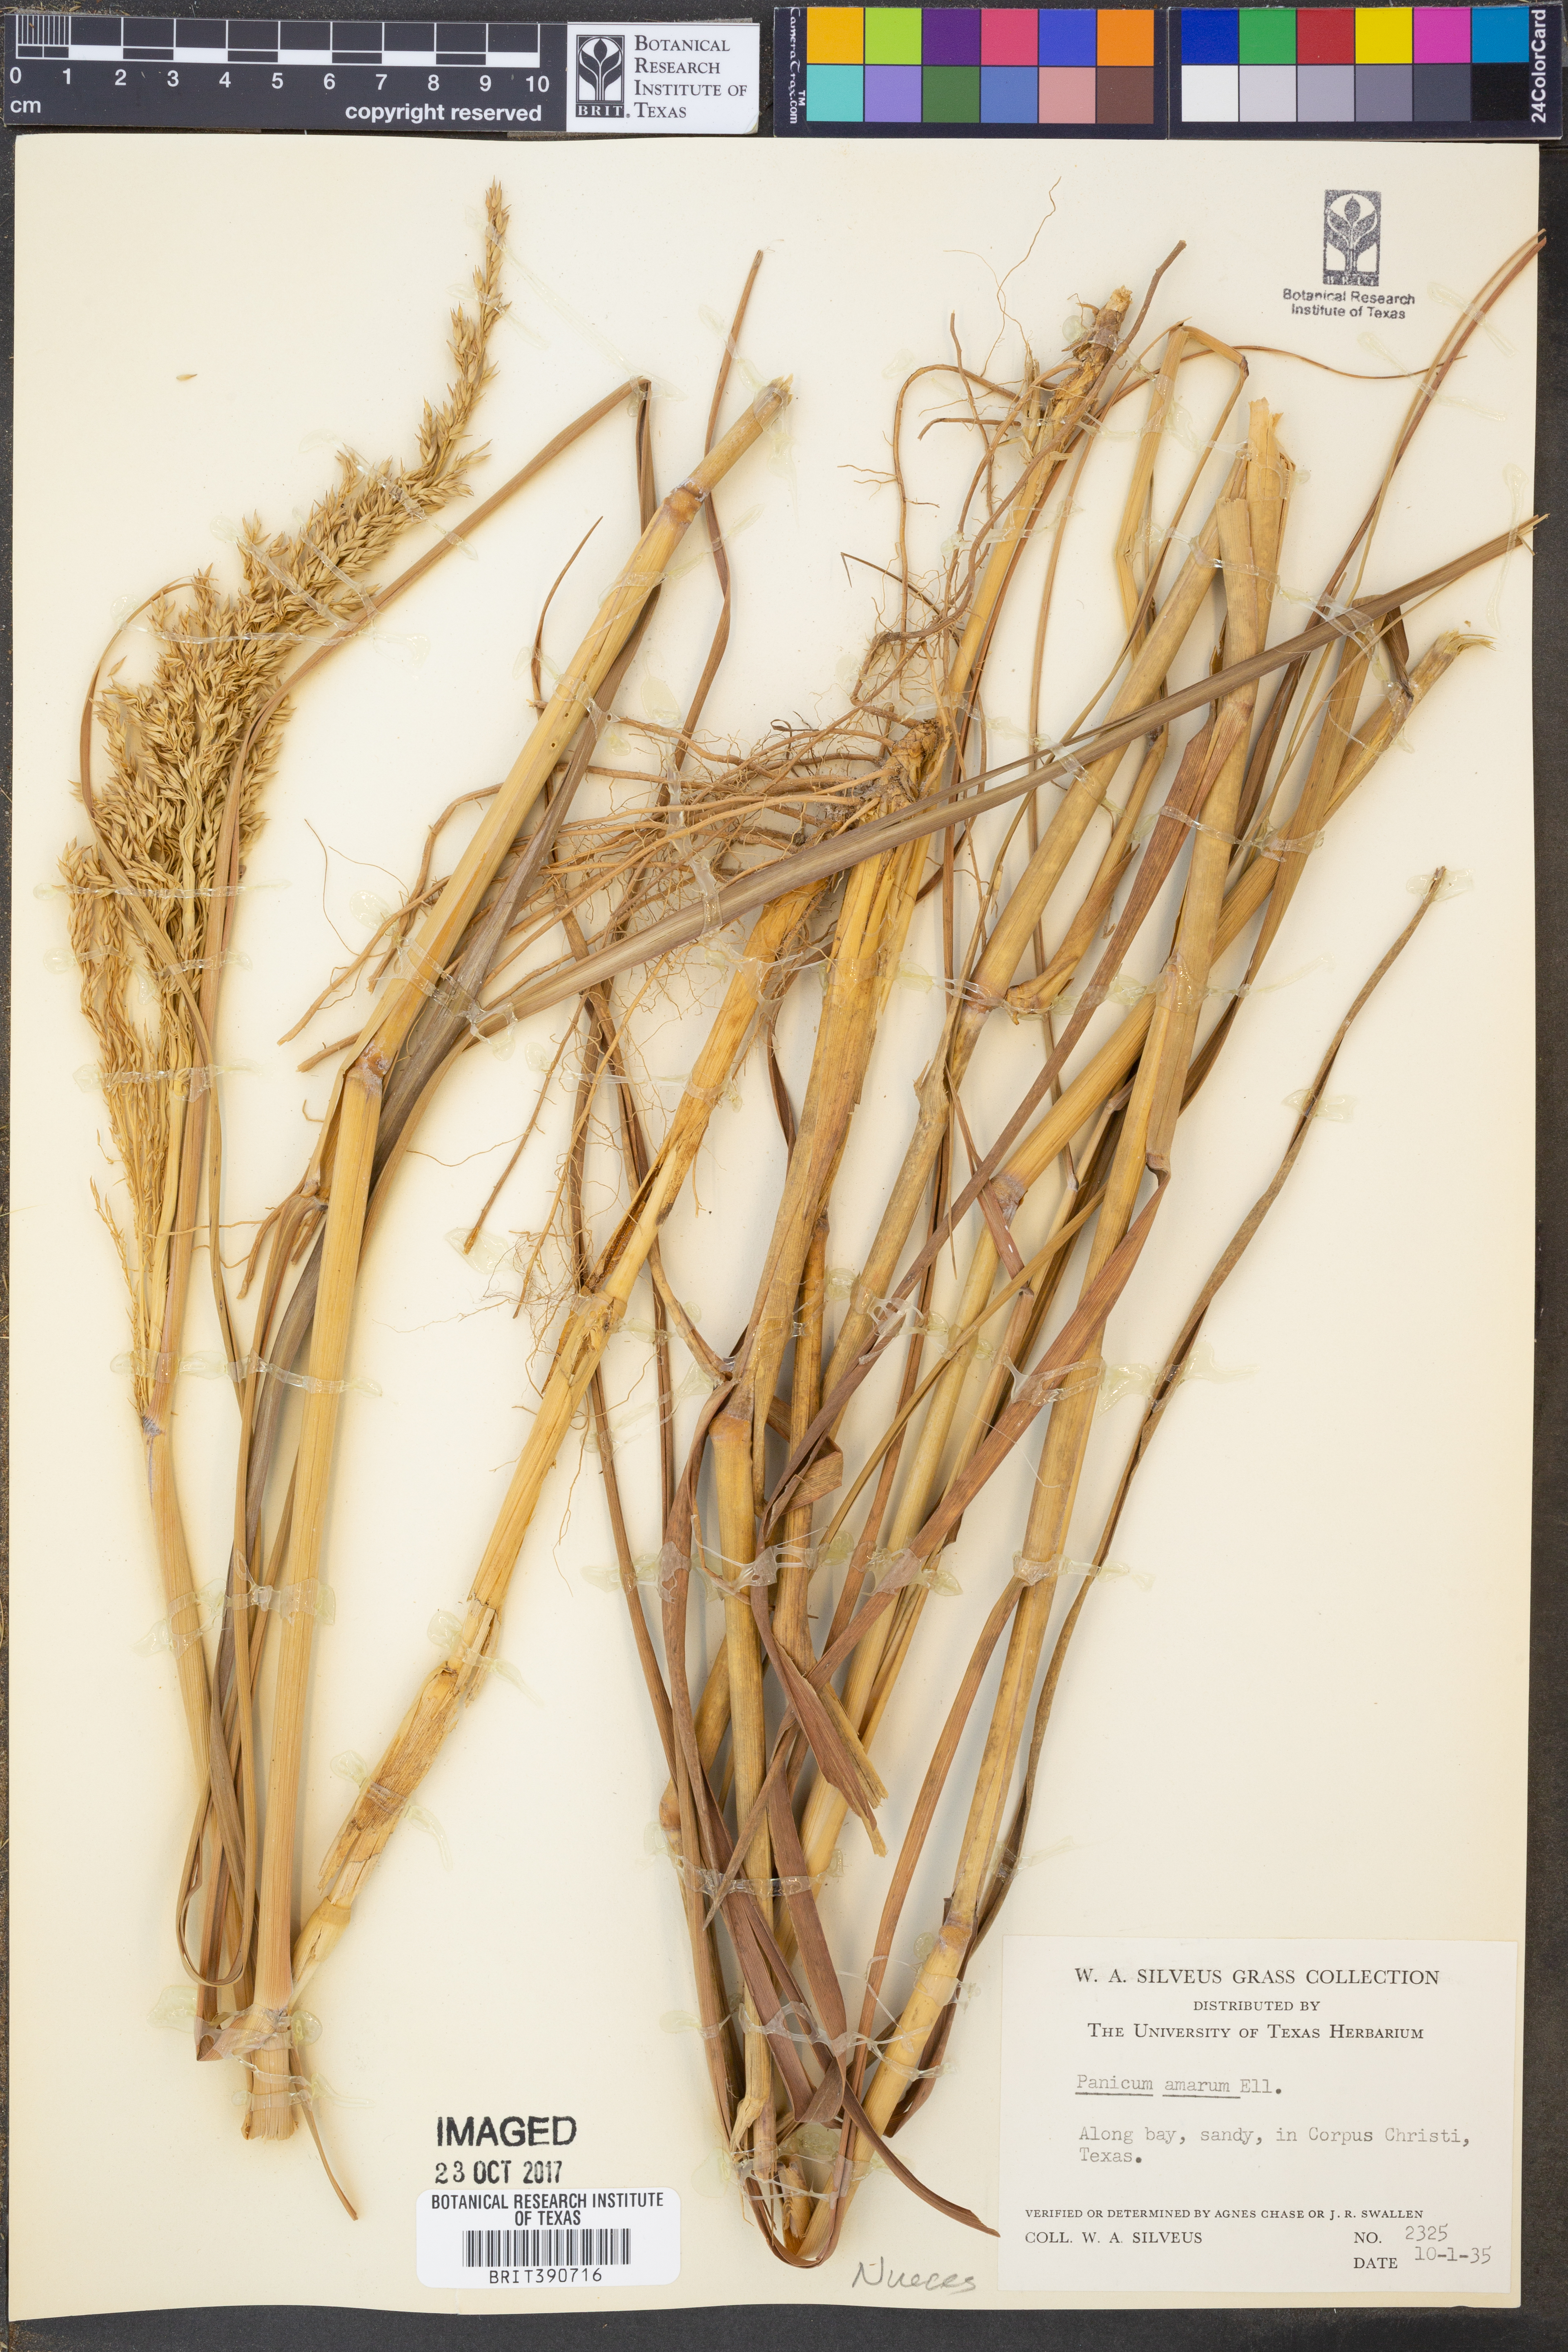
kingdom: Plantae
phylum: Tracheophyta
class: Liliopsida
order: Poales
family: Poaceae
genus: Panicum
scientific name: Panicum amarum
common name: Bitter panicum
